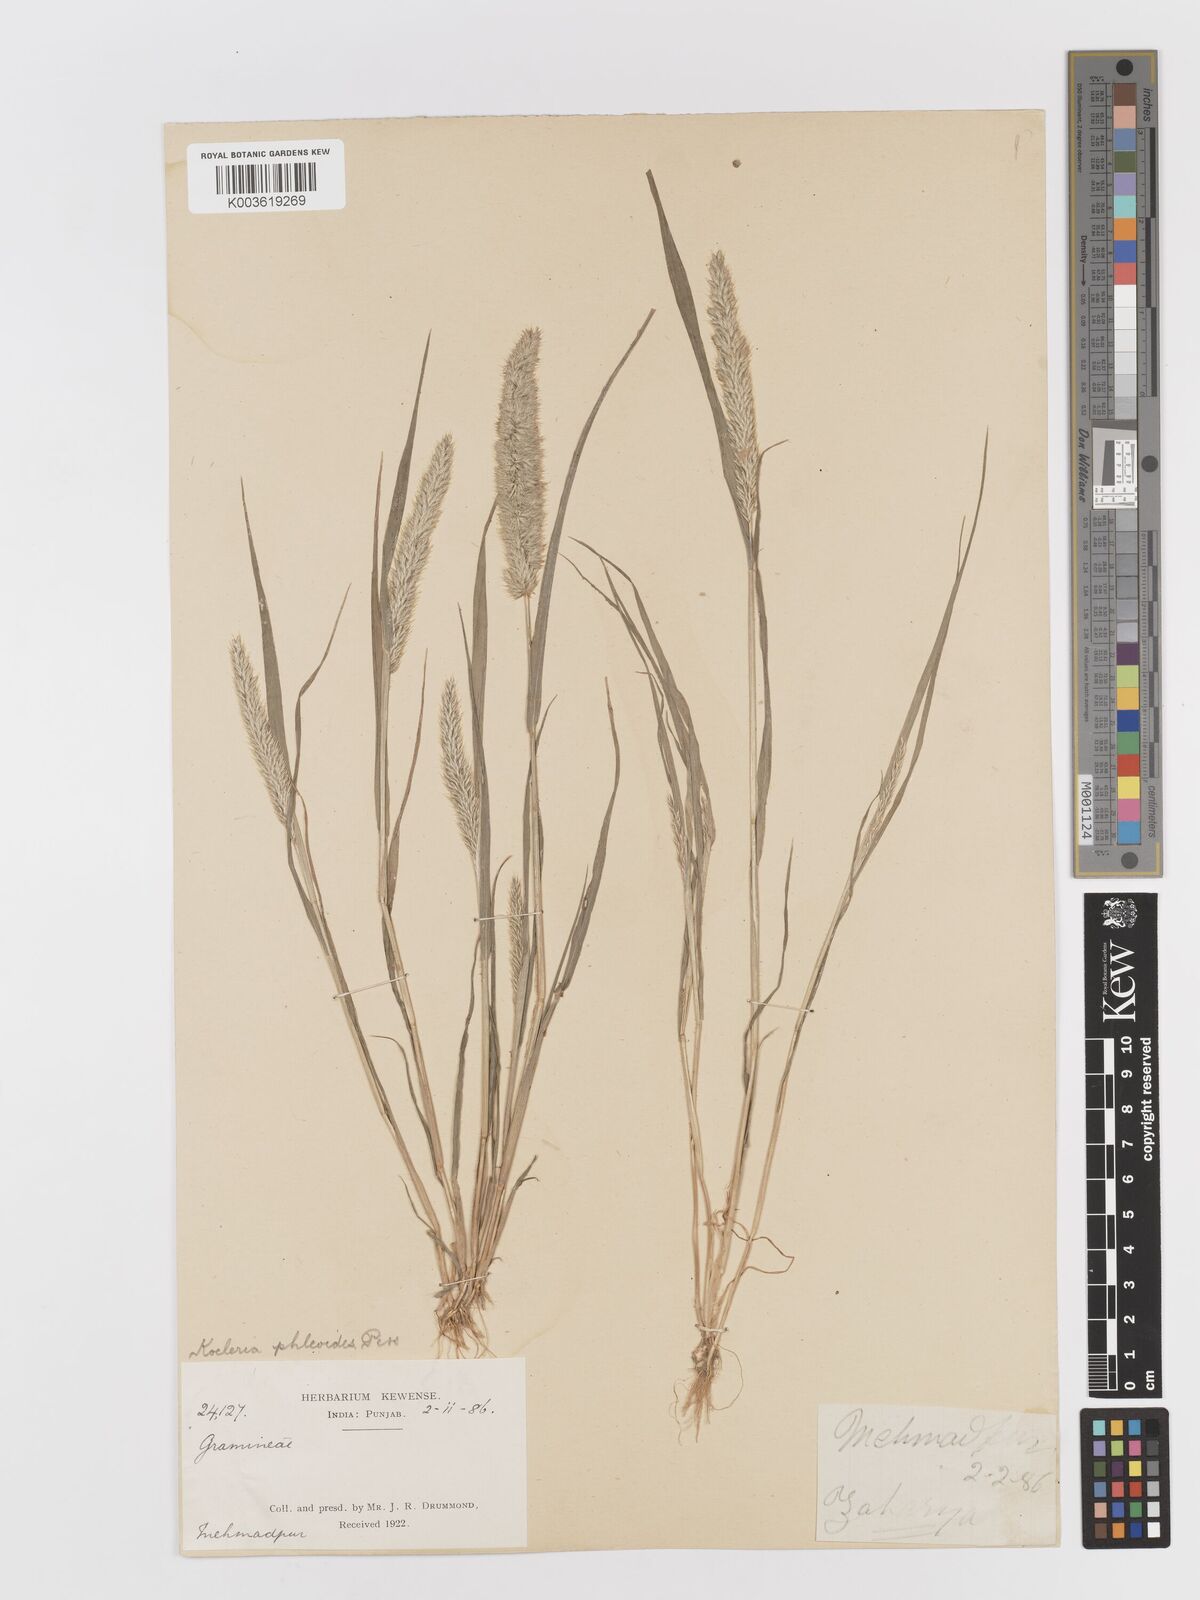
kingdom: Plantae
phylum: Tracheophyta
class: Liliopsida
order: Poales
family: Poaceae
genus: Rostraria
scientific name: Rostraria cristata
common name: Mediterranean hair-grass
